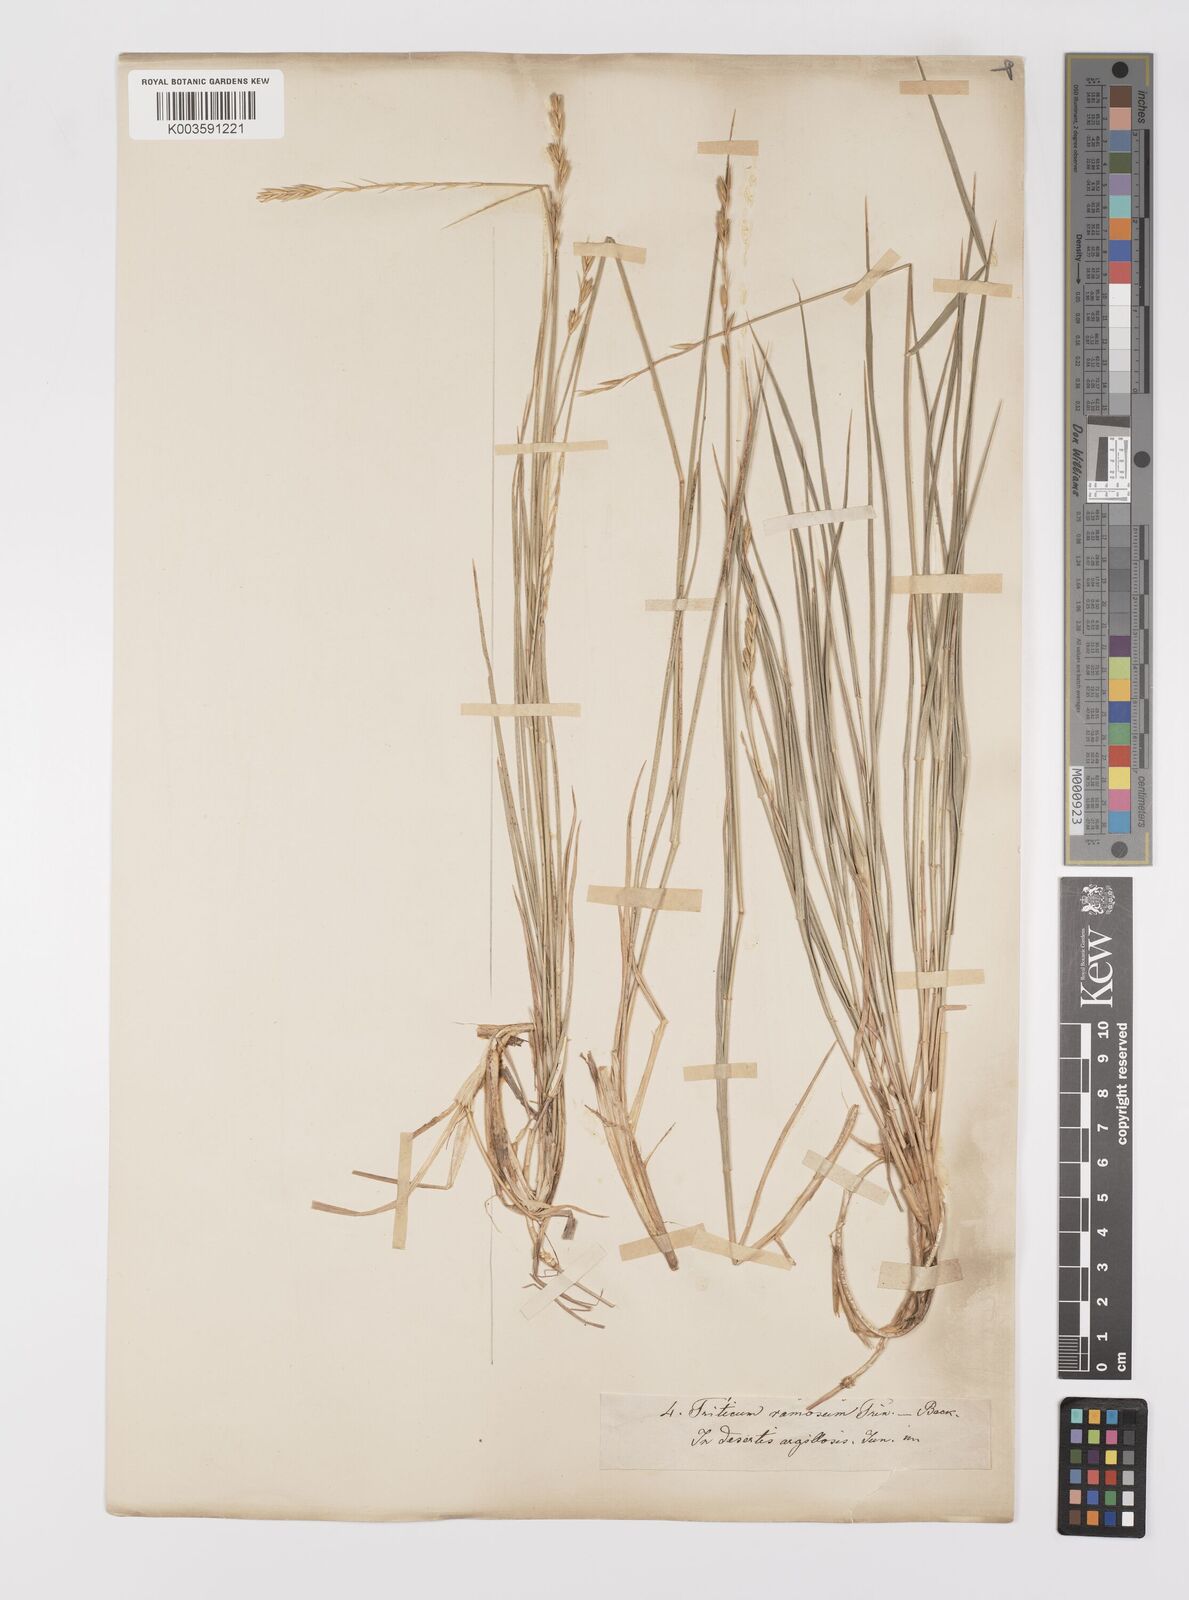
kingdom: Plantae
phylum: Tracheophyta
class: Liliopsida
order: Poales
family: Poaceae
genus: Leymus
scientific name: Leymus
